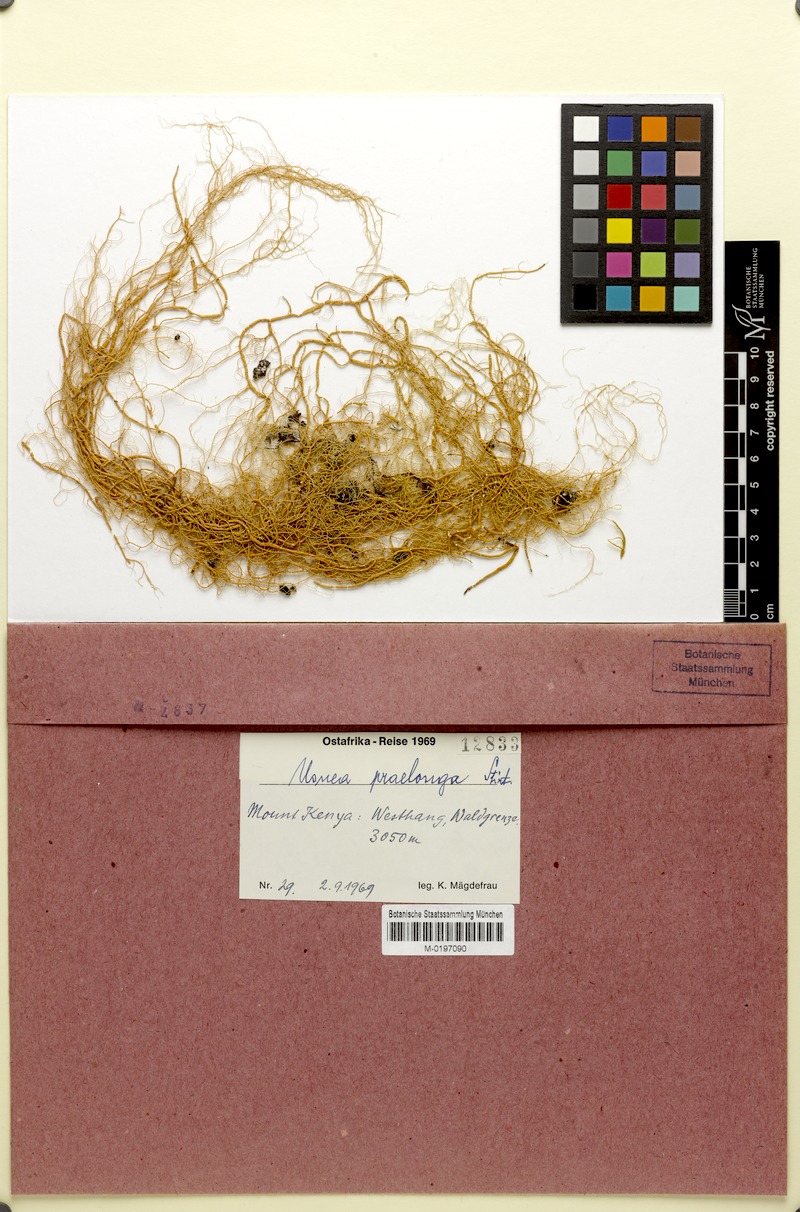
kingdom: Fungi
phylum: Ascomycota
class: Lecanoromycetes
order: Lecanorales
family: Parmeliaceae
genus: Usnea
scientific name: Usnea
